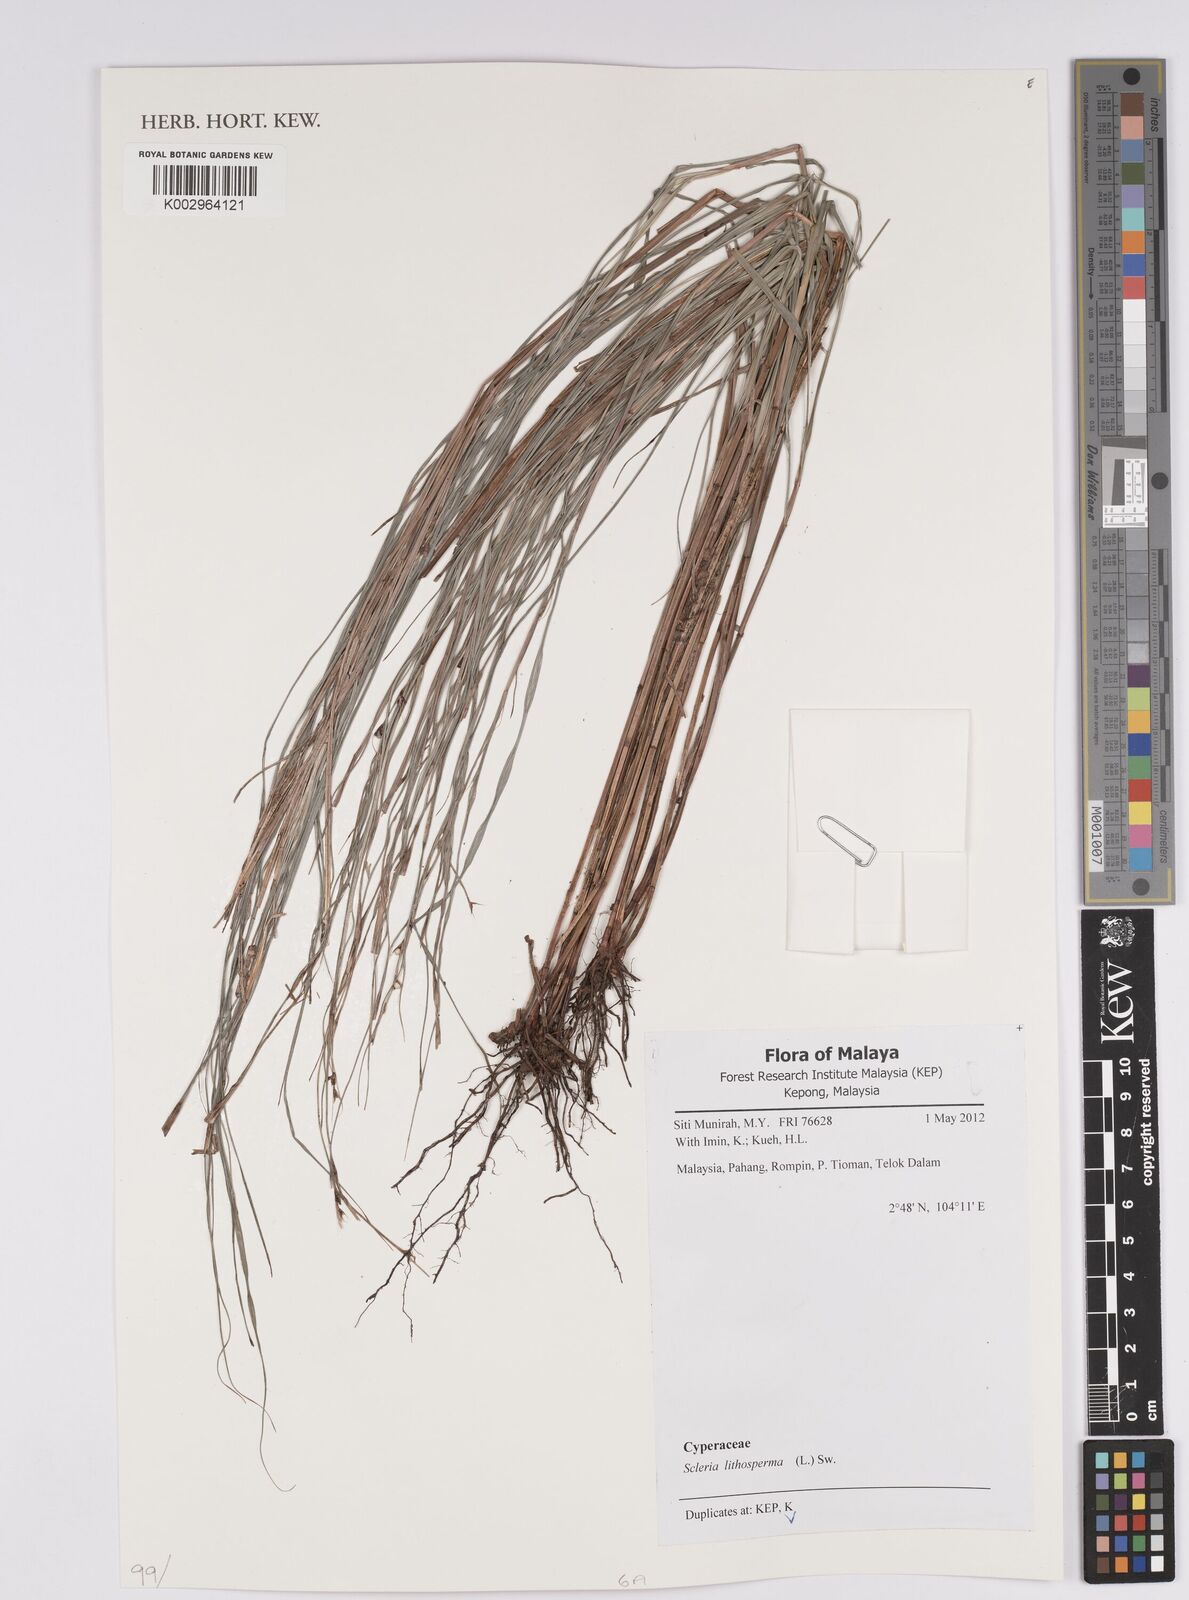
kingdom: Plantae
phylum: Tracheophyta
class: Liliopsida
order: Poales
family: Cyperaceae
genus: Scleria
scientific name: Scleria lithosperma
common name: Florida keys nut-rush
